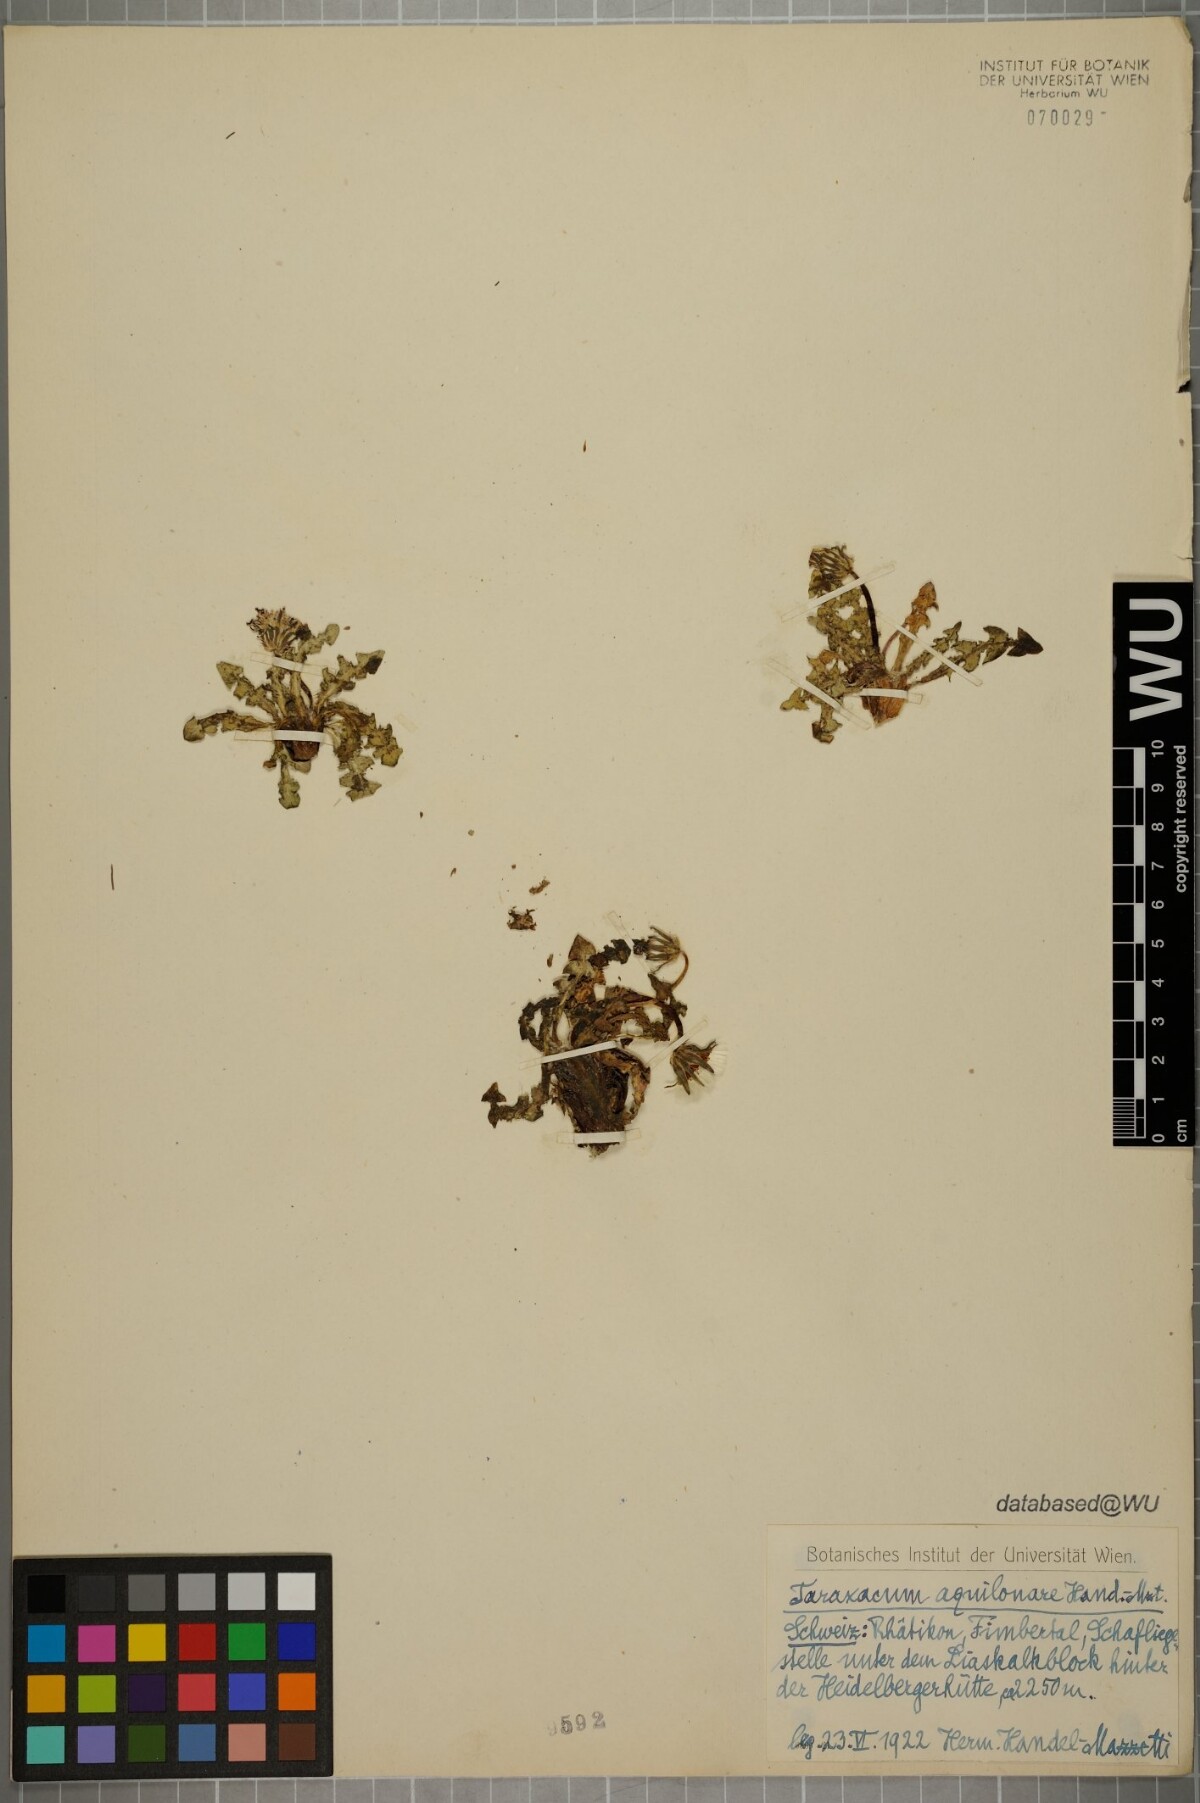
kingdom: Plantae
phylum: Tracheophyta
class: Magnoliopsida
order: Asterales
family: Asteraceae
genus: Taraxacum
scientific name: Taraxacum aquilonare
